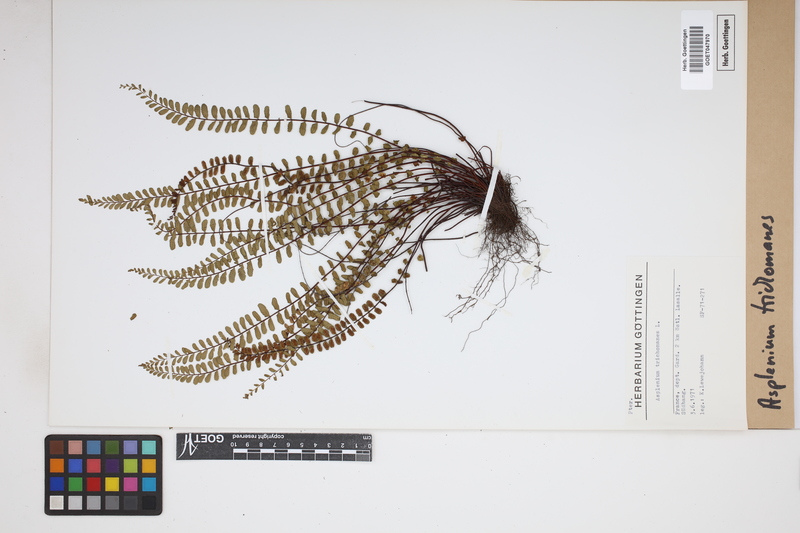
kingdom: Plantae
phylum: Tracheophyta
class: Polypodiopsida
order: Polypodiales
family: Aspleniaceae
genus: Asplenium
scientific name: Asplenium trichomanes
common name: Maidenhair spleenwort
